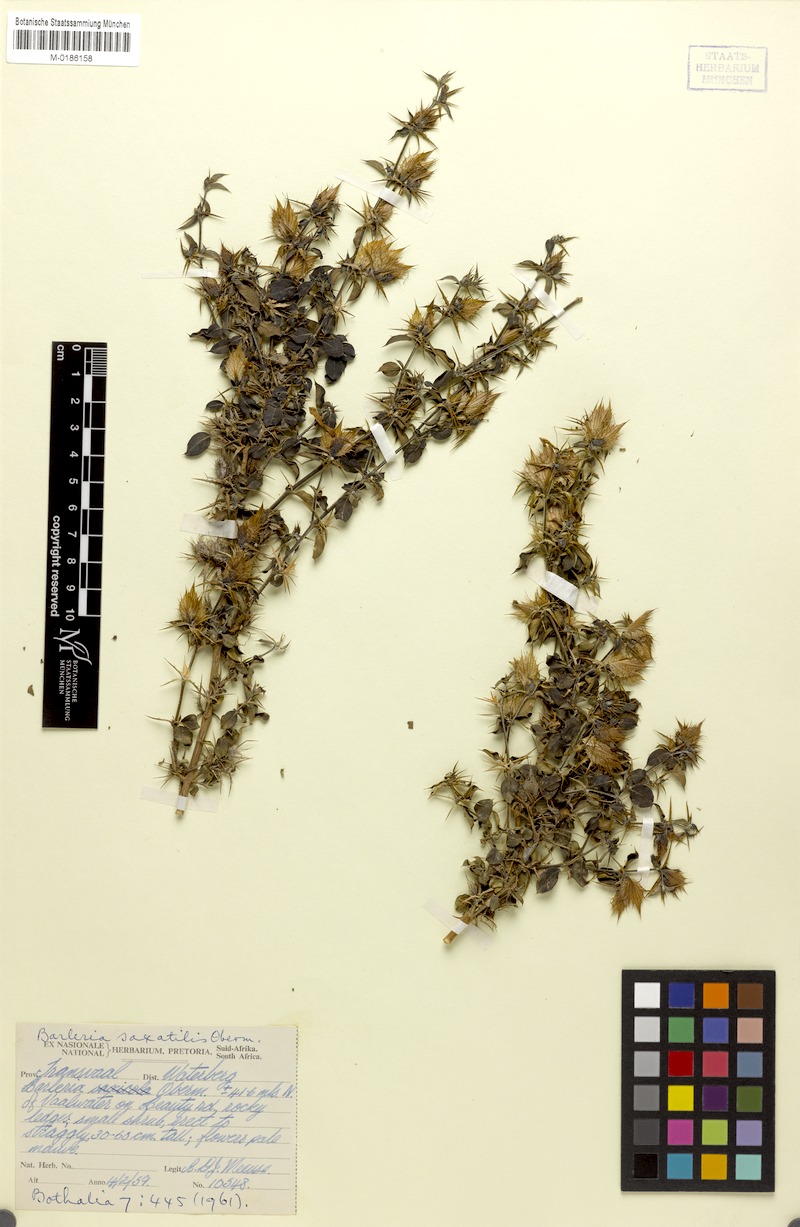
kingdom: Plantae
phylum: Tracheophyta
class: Magnoliopsida
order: Lamiales
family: Acanthaceae
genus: Barleria
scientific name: Barleria saxatilis
